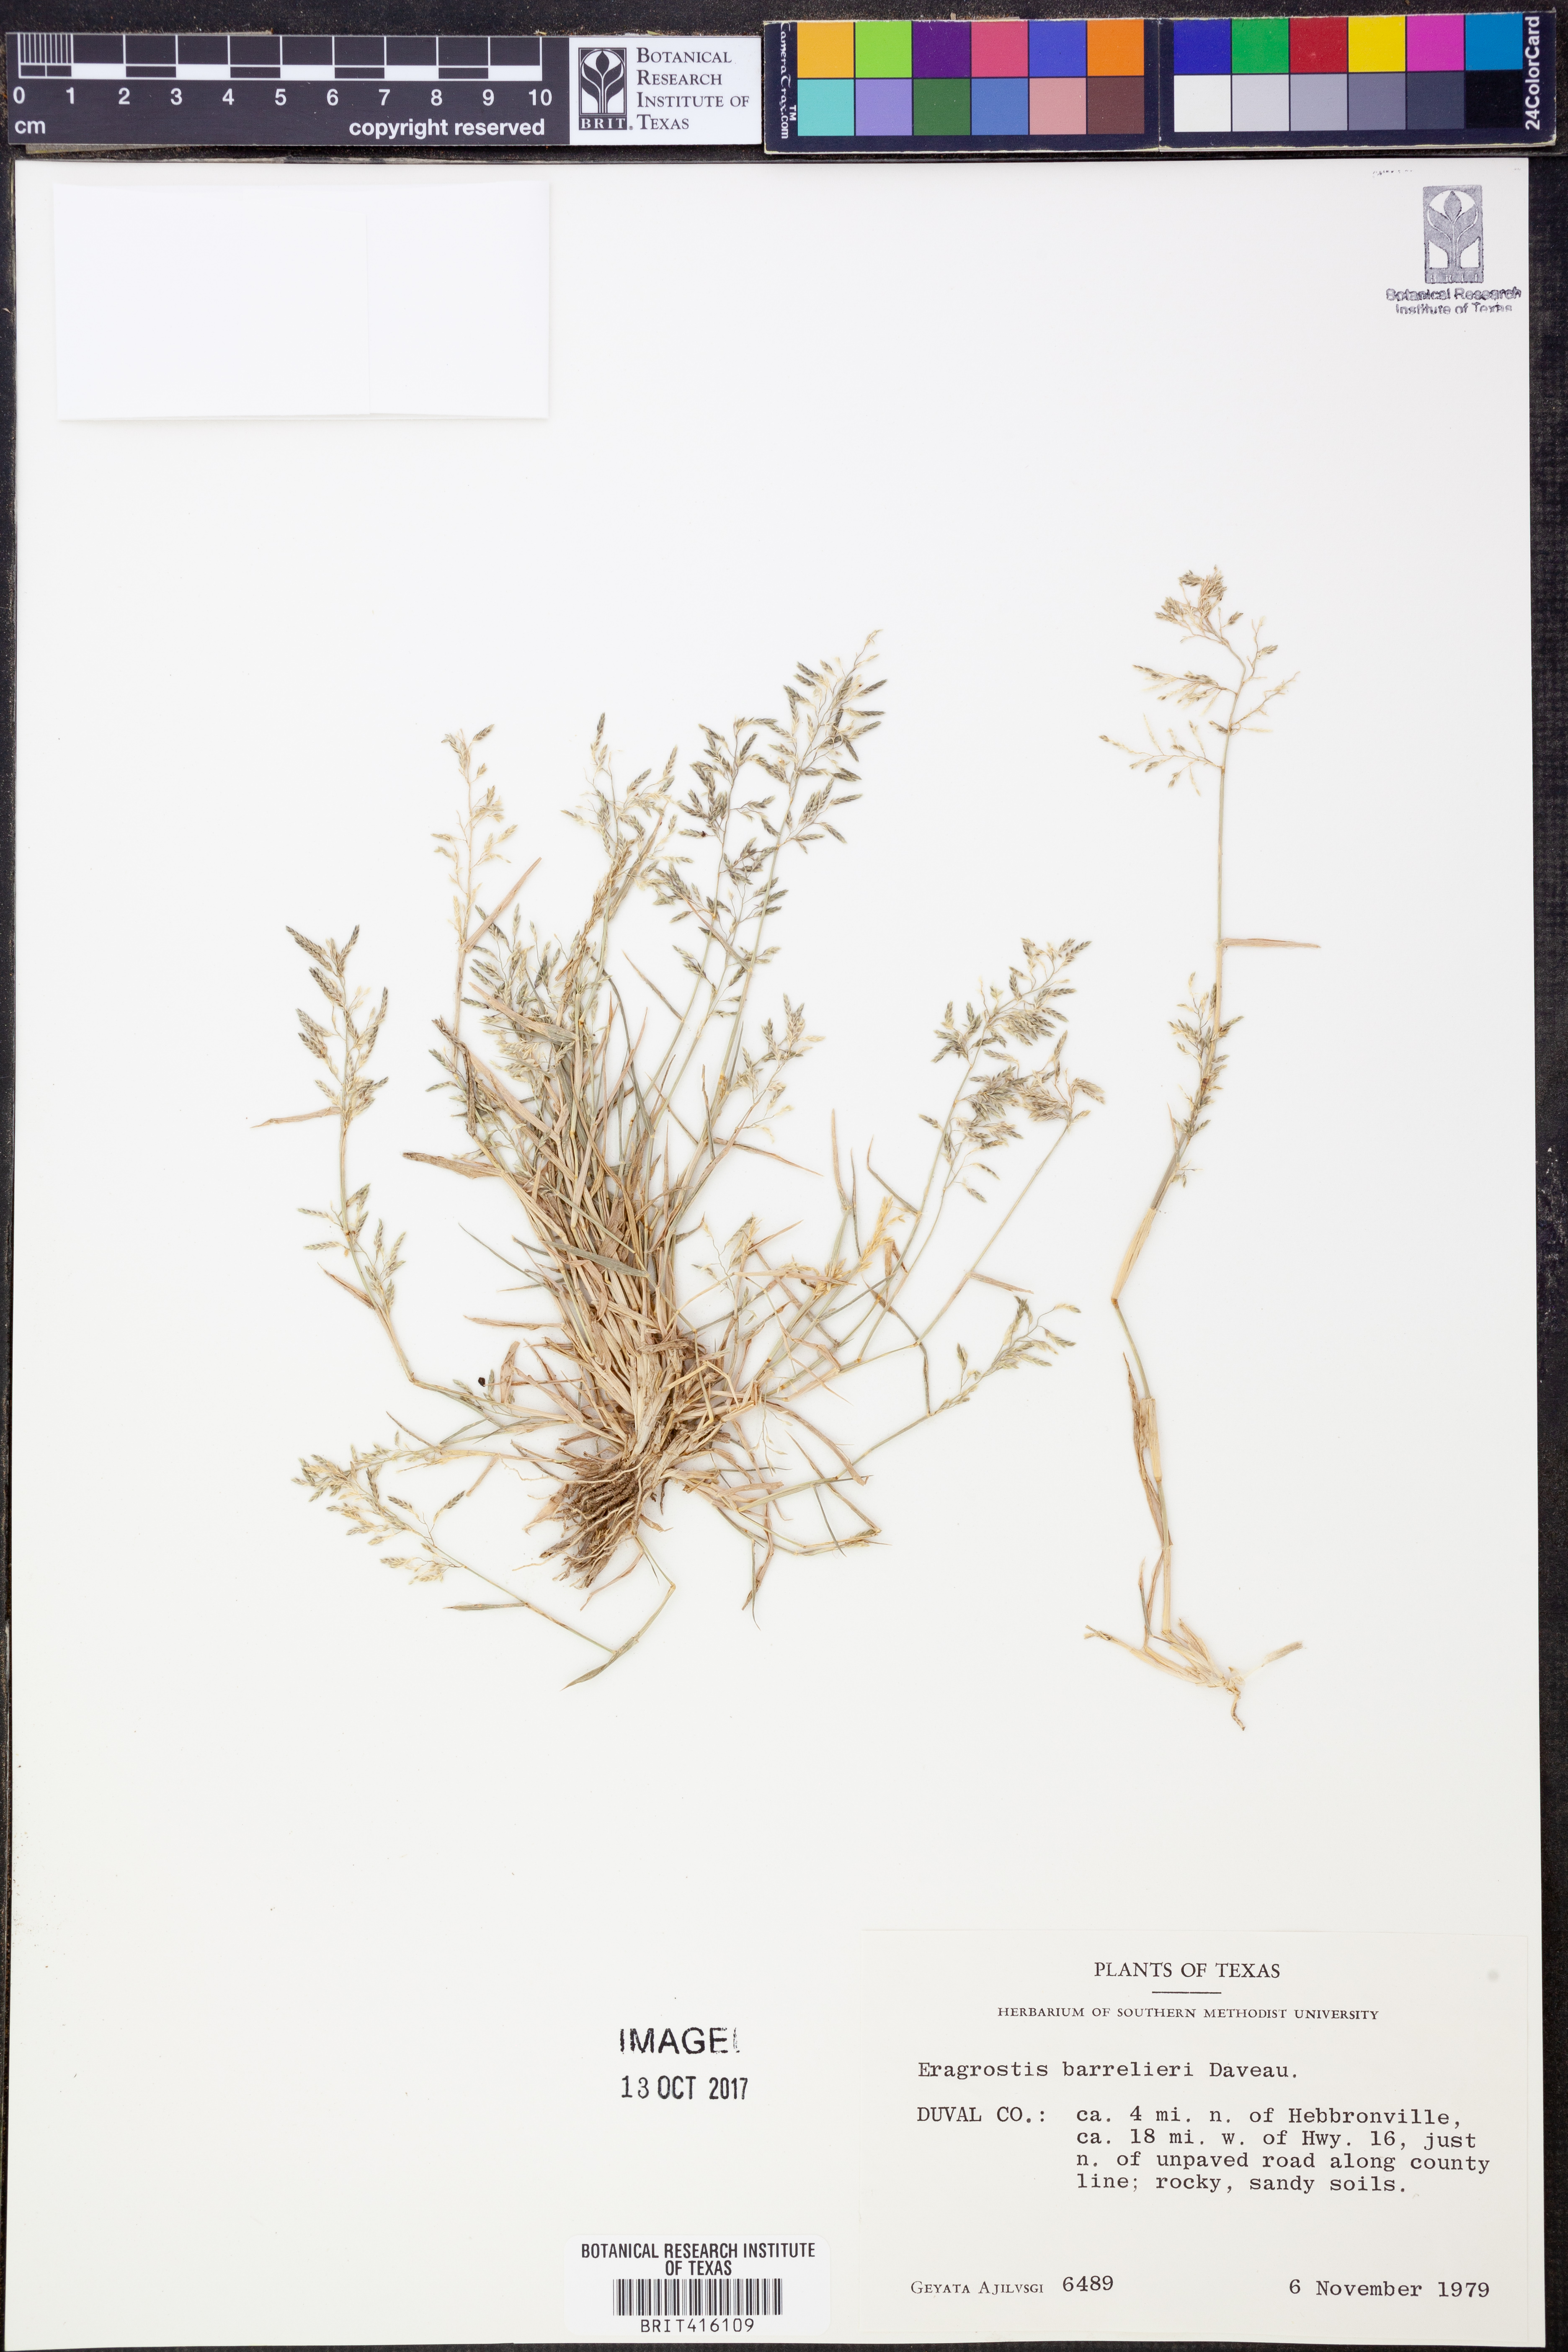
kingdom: Plantae
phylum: Tracheophyta
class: Liliopsida
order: Poales
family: Poaceae
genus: Eragrostis
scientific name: Eragrostis barrelieri
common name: Mediterranean lovegrass
